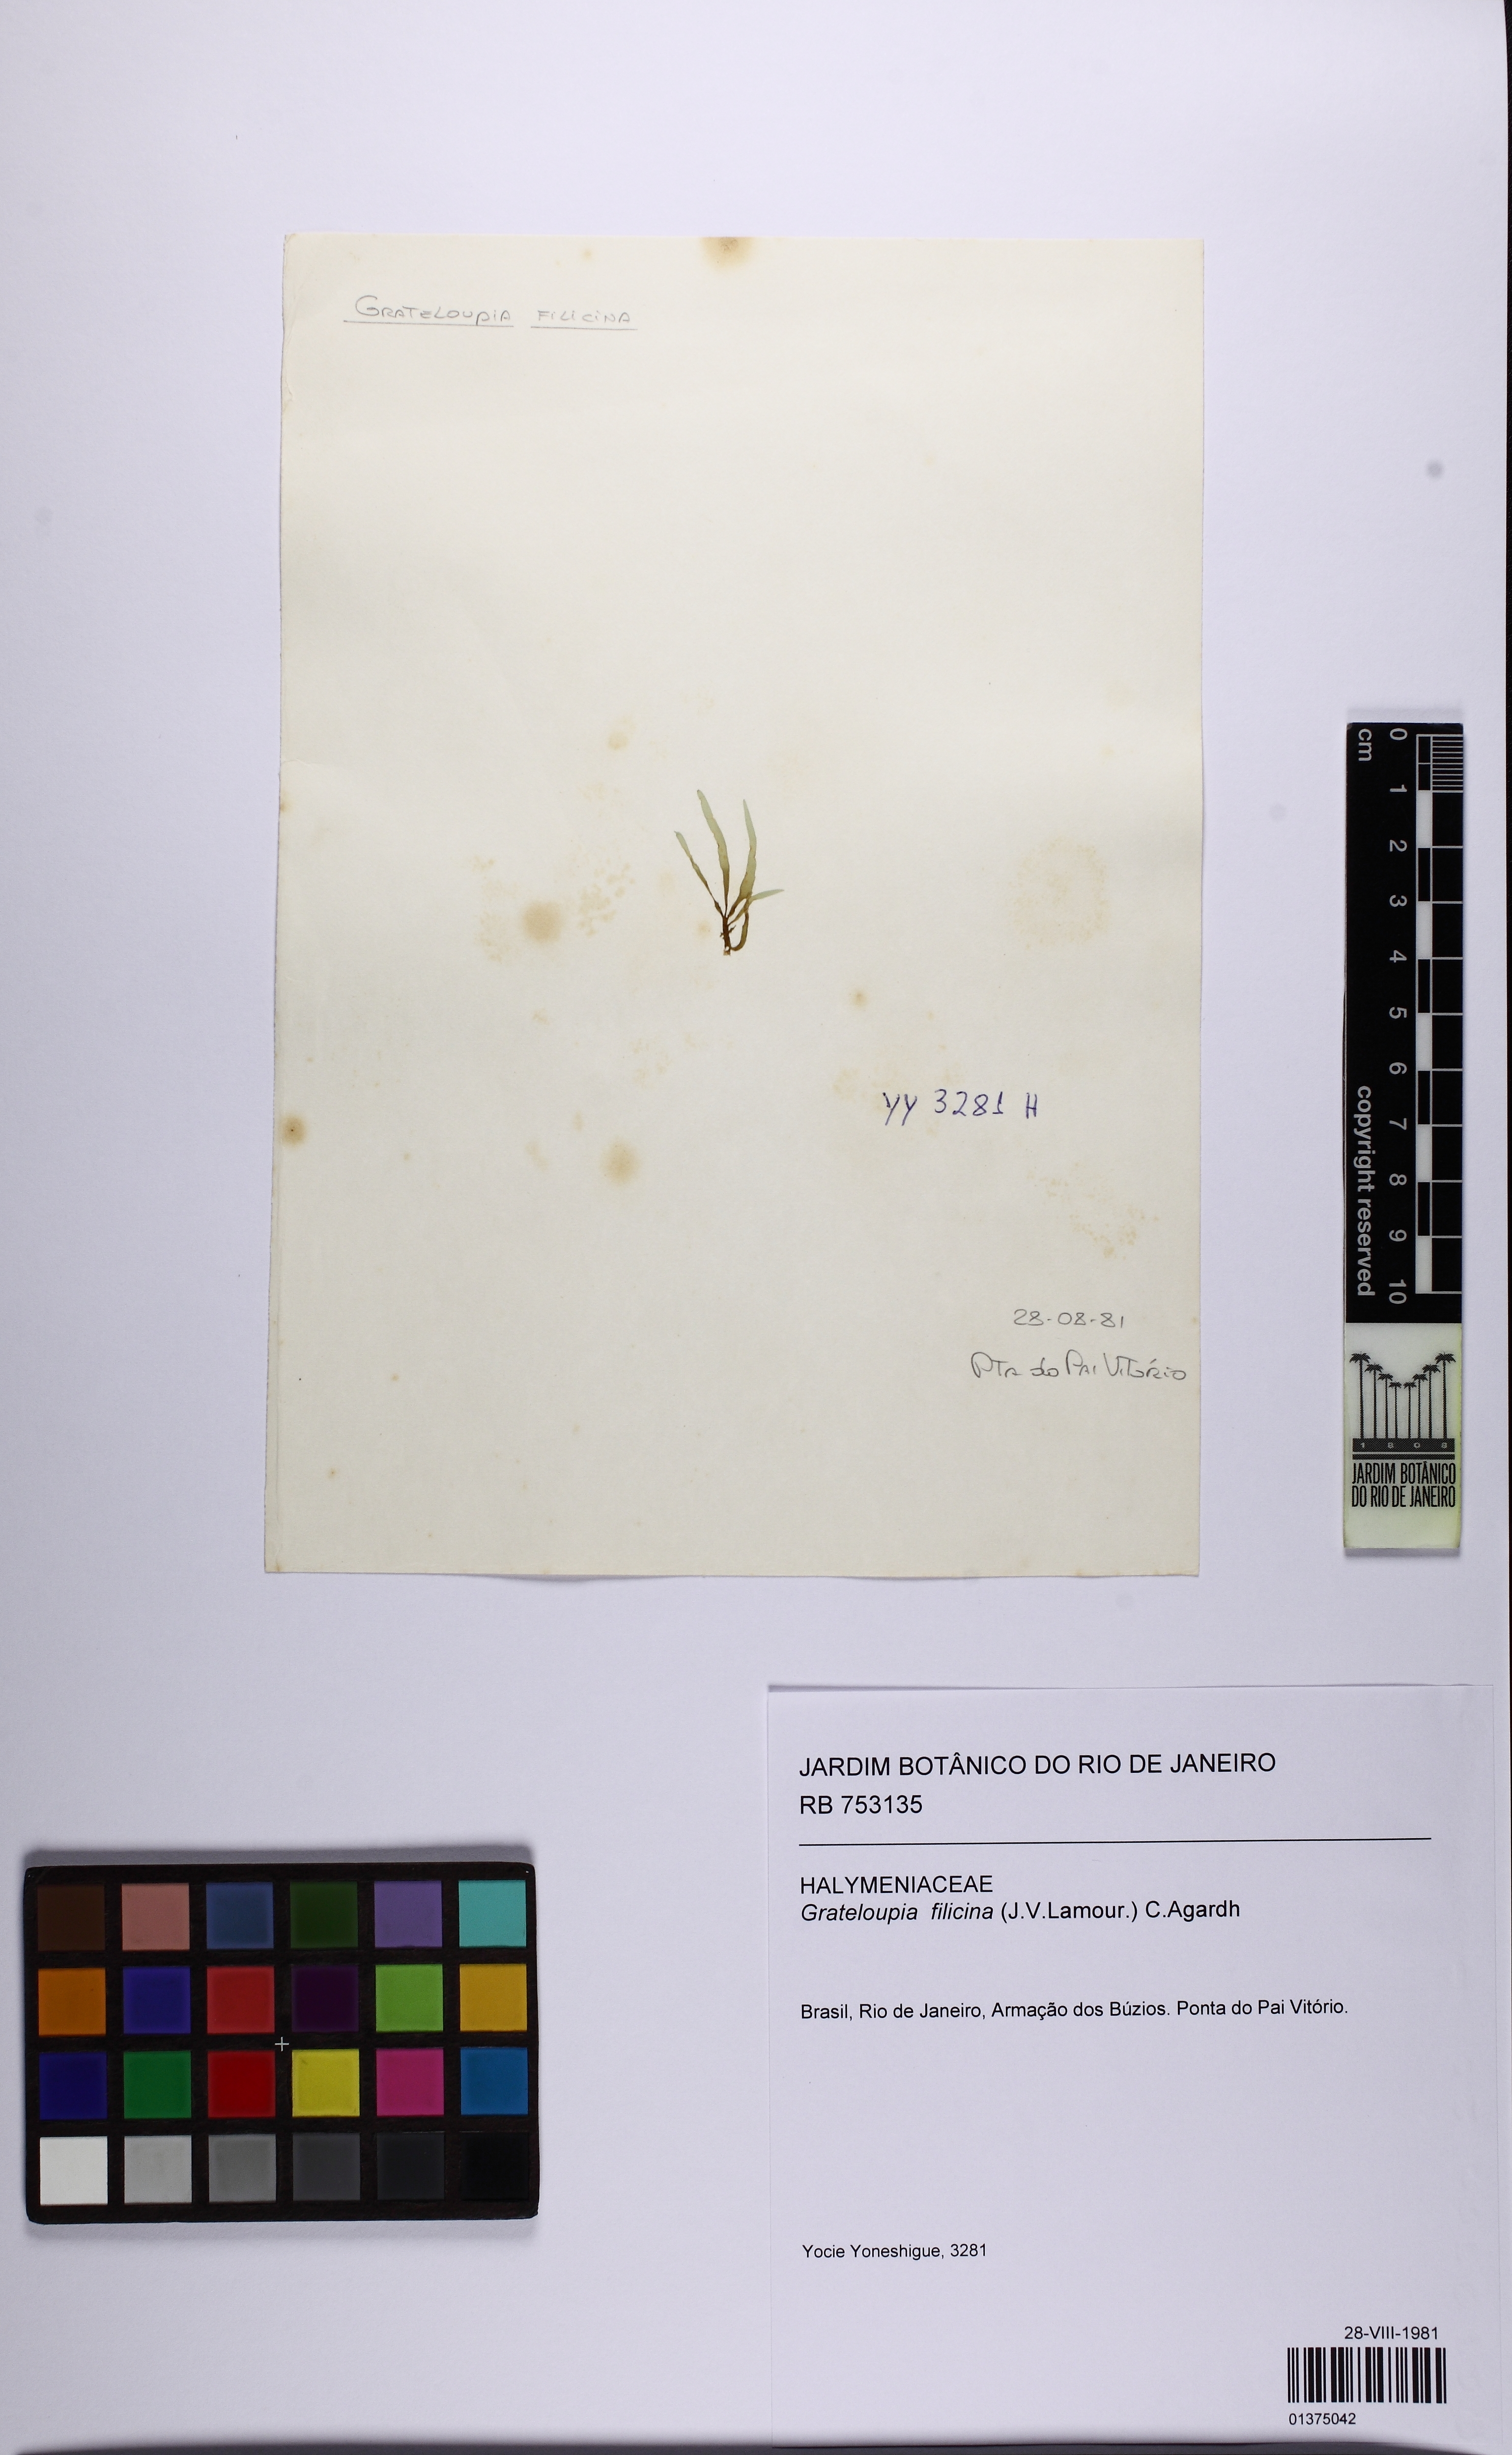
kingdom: Plantae
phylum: Rhodophyta
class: Florideophyceae
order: Halymeniales
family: Halymeniaceae
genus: Grateloupia
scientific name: Grateloupia filicina
